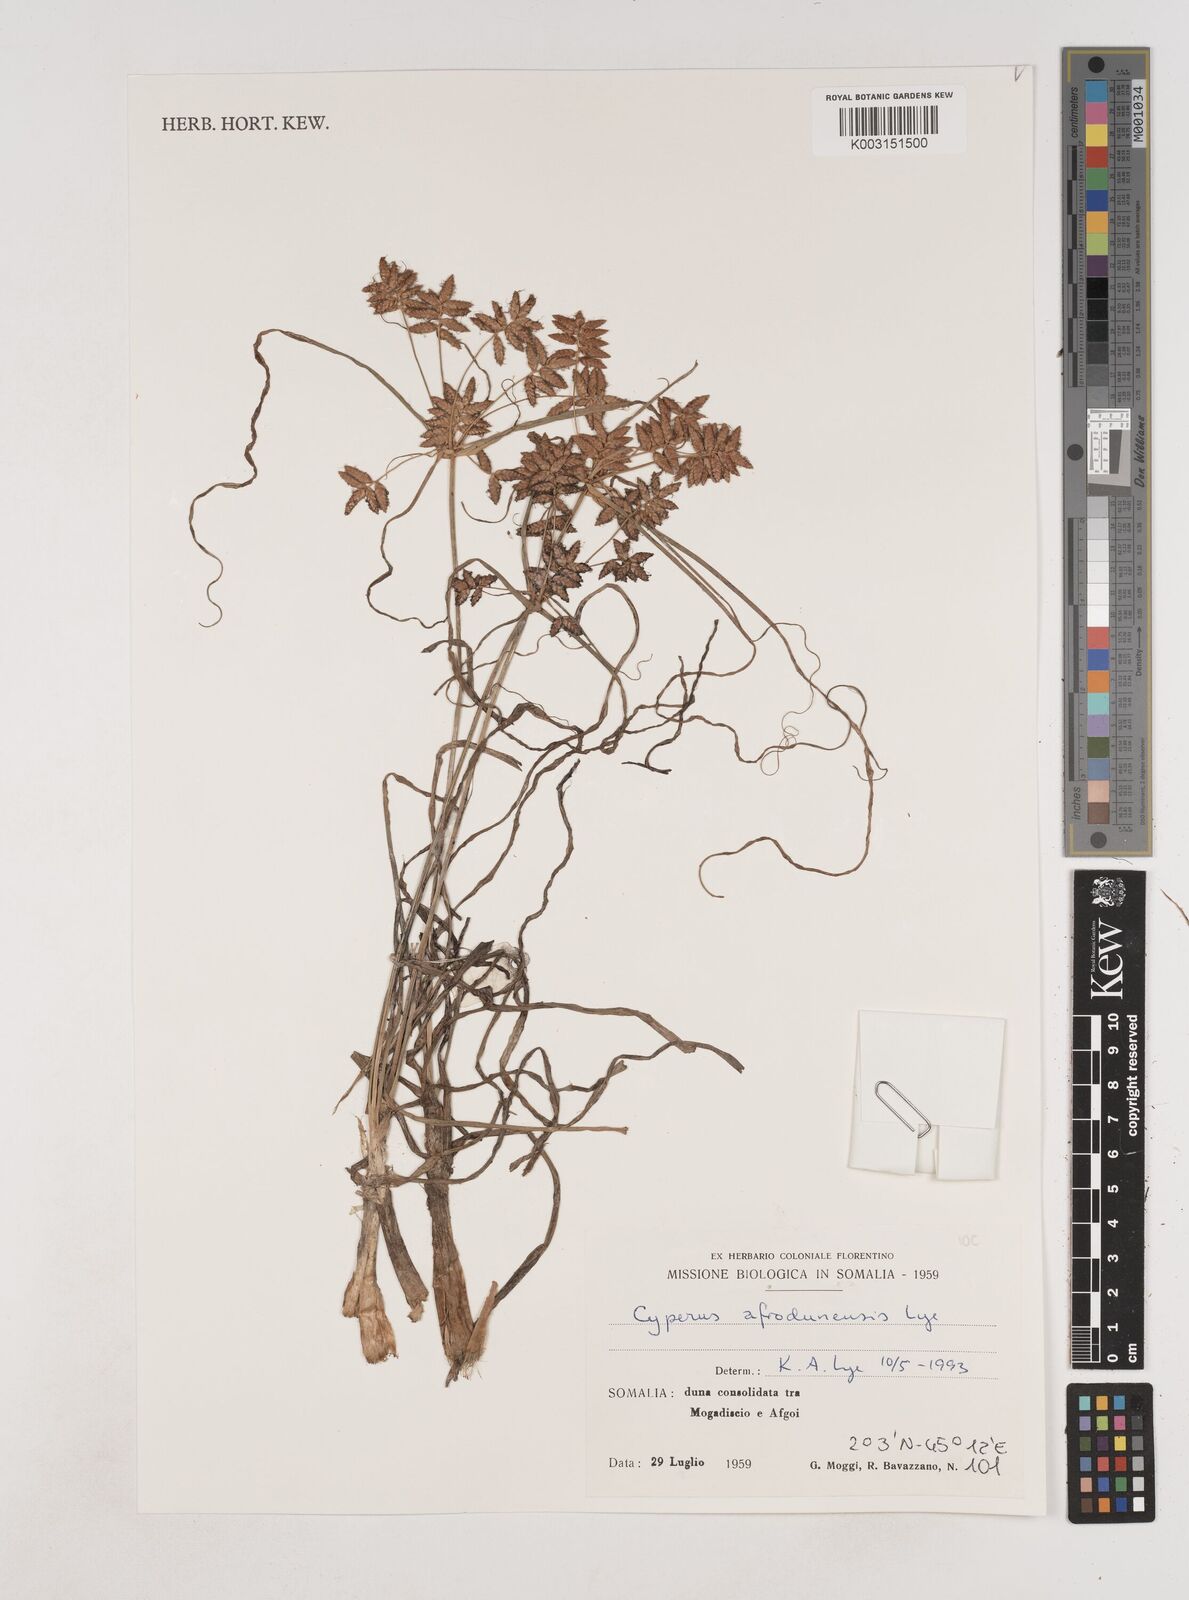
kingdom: Plantae
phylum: Tracheophyta
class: Liliopsida
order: Poales
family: Cyperaceae
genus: Cyperus
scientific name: Cyperus afrodunensis
